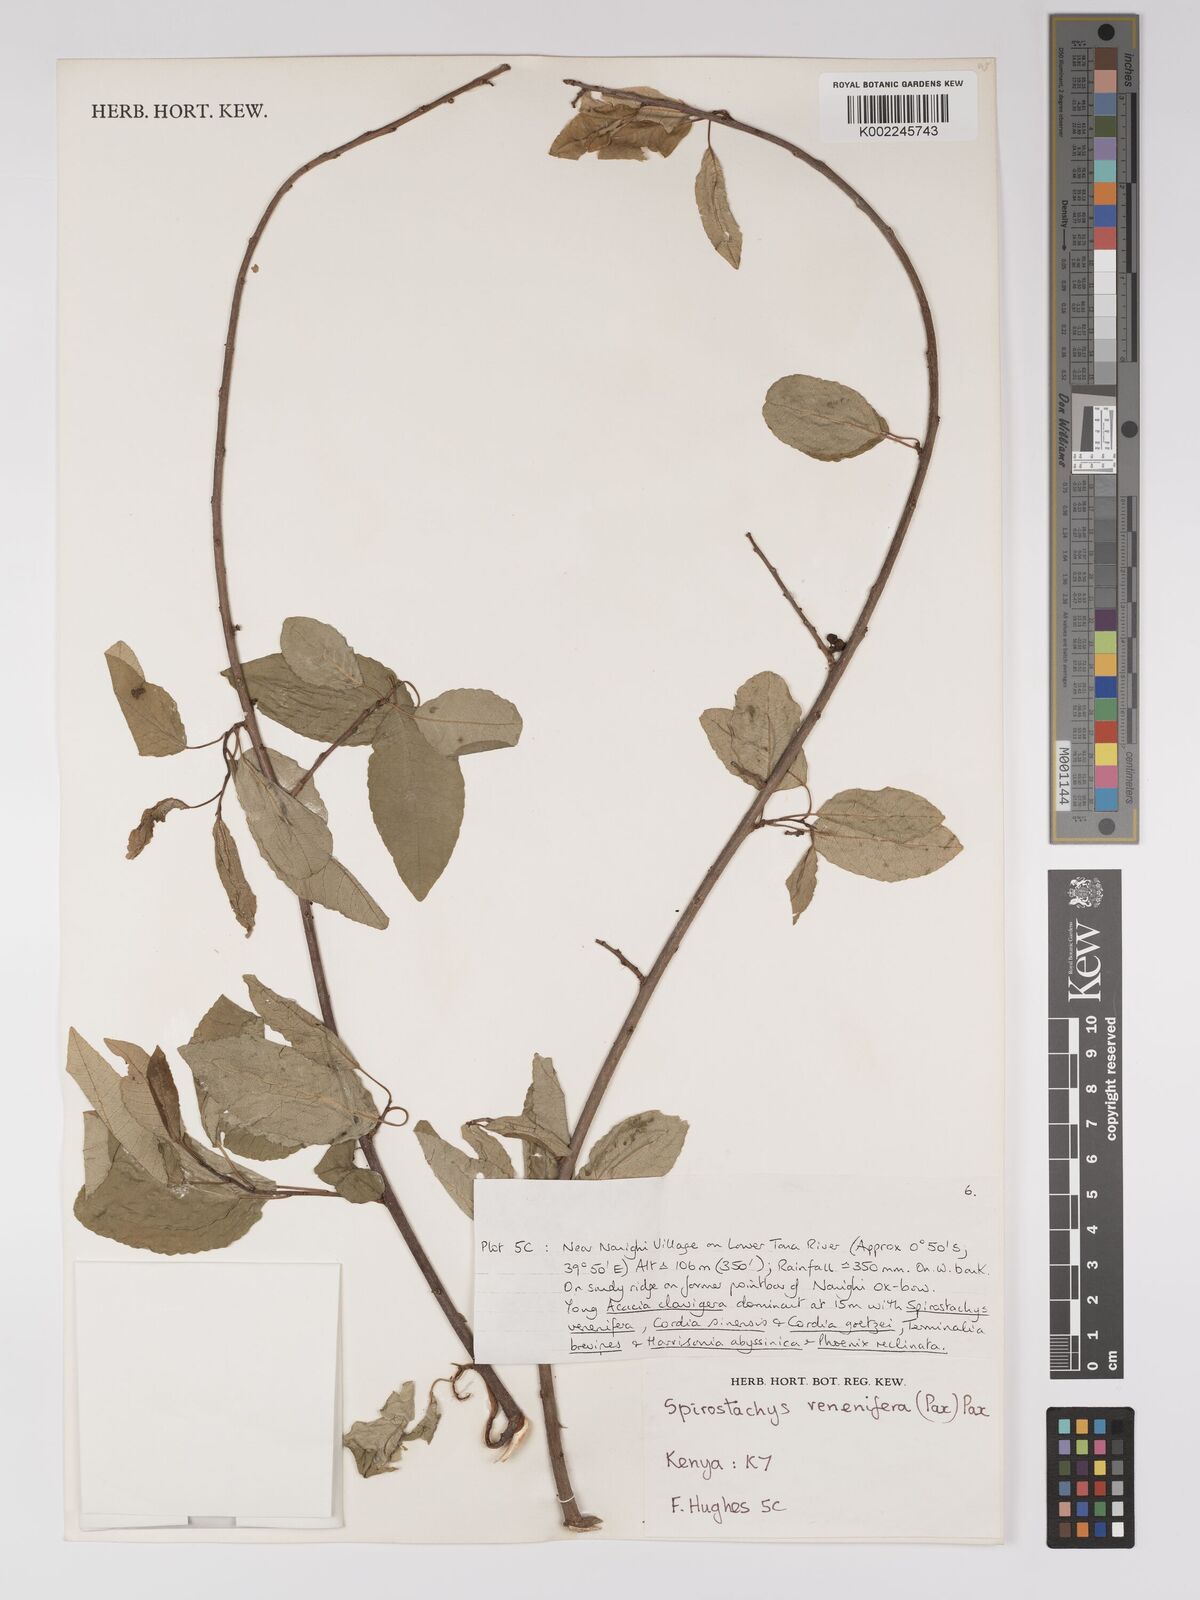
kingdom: Plantae
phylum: Tracheophyta
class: Magnoliopsida
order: Malpighiales
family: Euphorbiaceae
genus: Spirostachys
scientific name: Spirostachys venenifera
